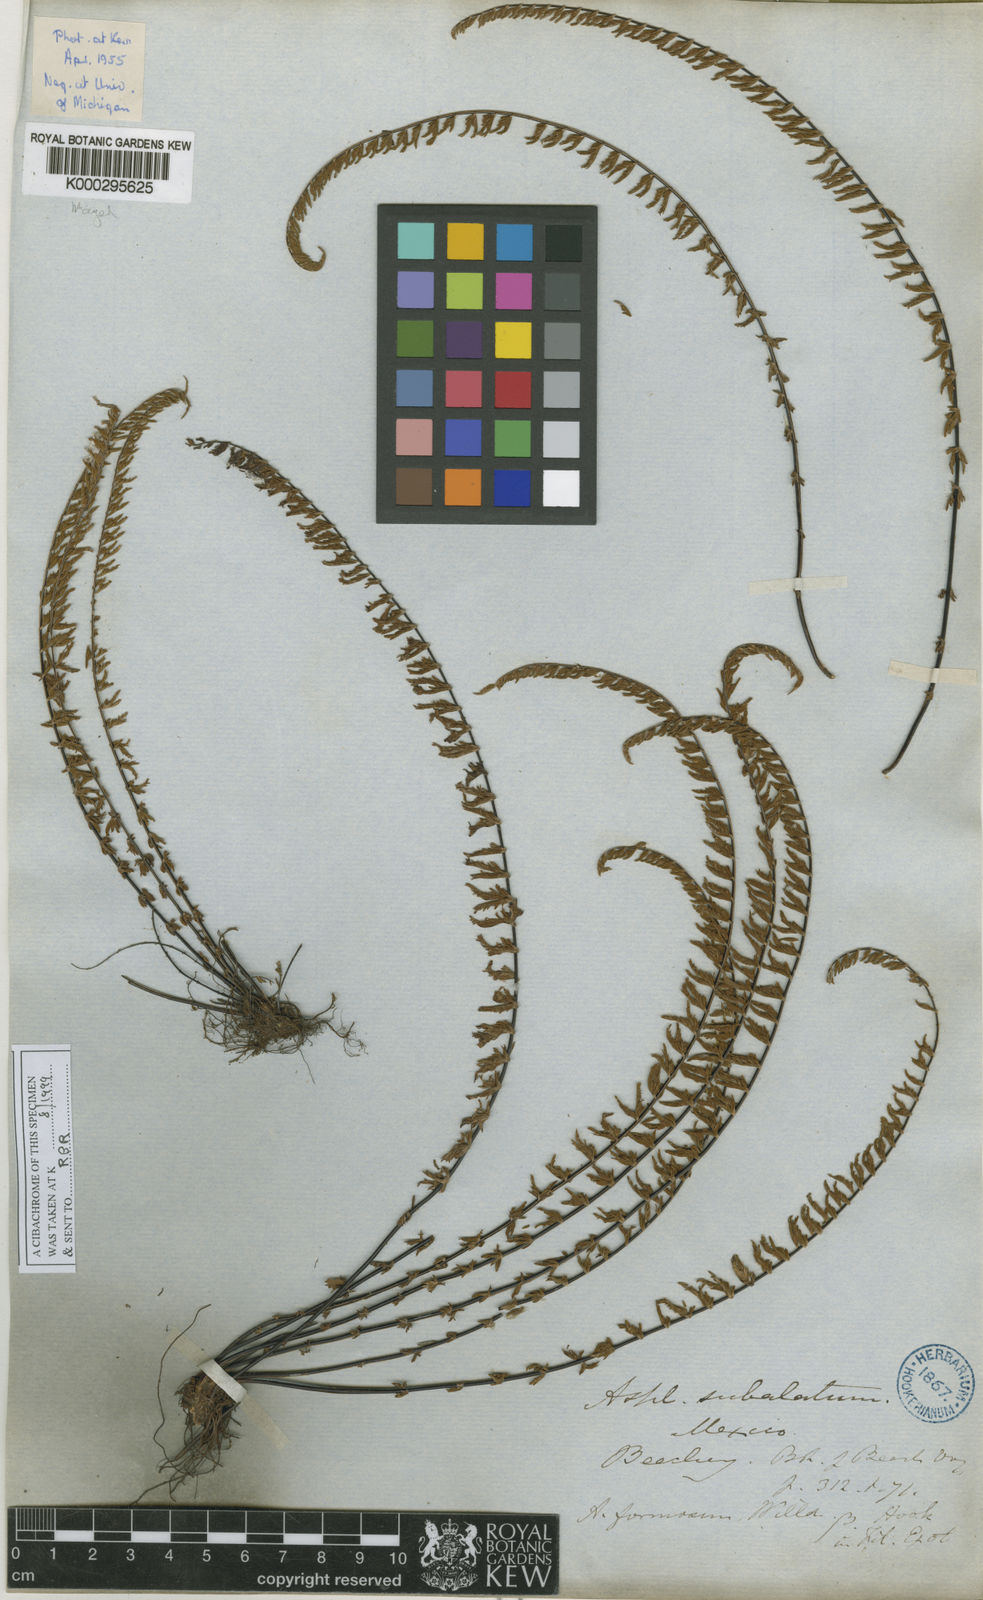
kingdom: Plantae
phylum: Tracheophyta
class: Polypodiopsida
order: Polypodiales
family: Aspleniaceae
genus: Asplenium
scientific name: Asplenium formosum
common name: Showy spleenwort
